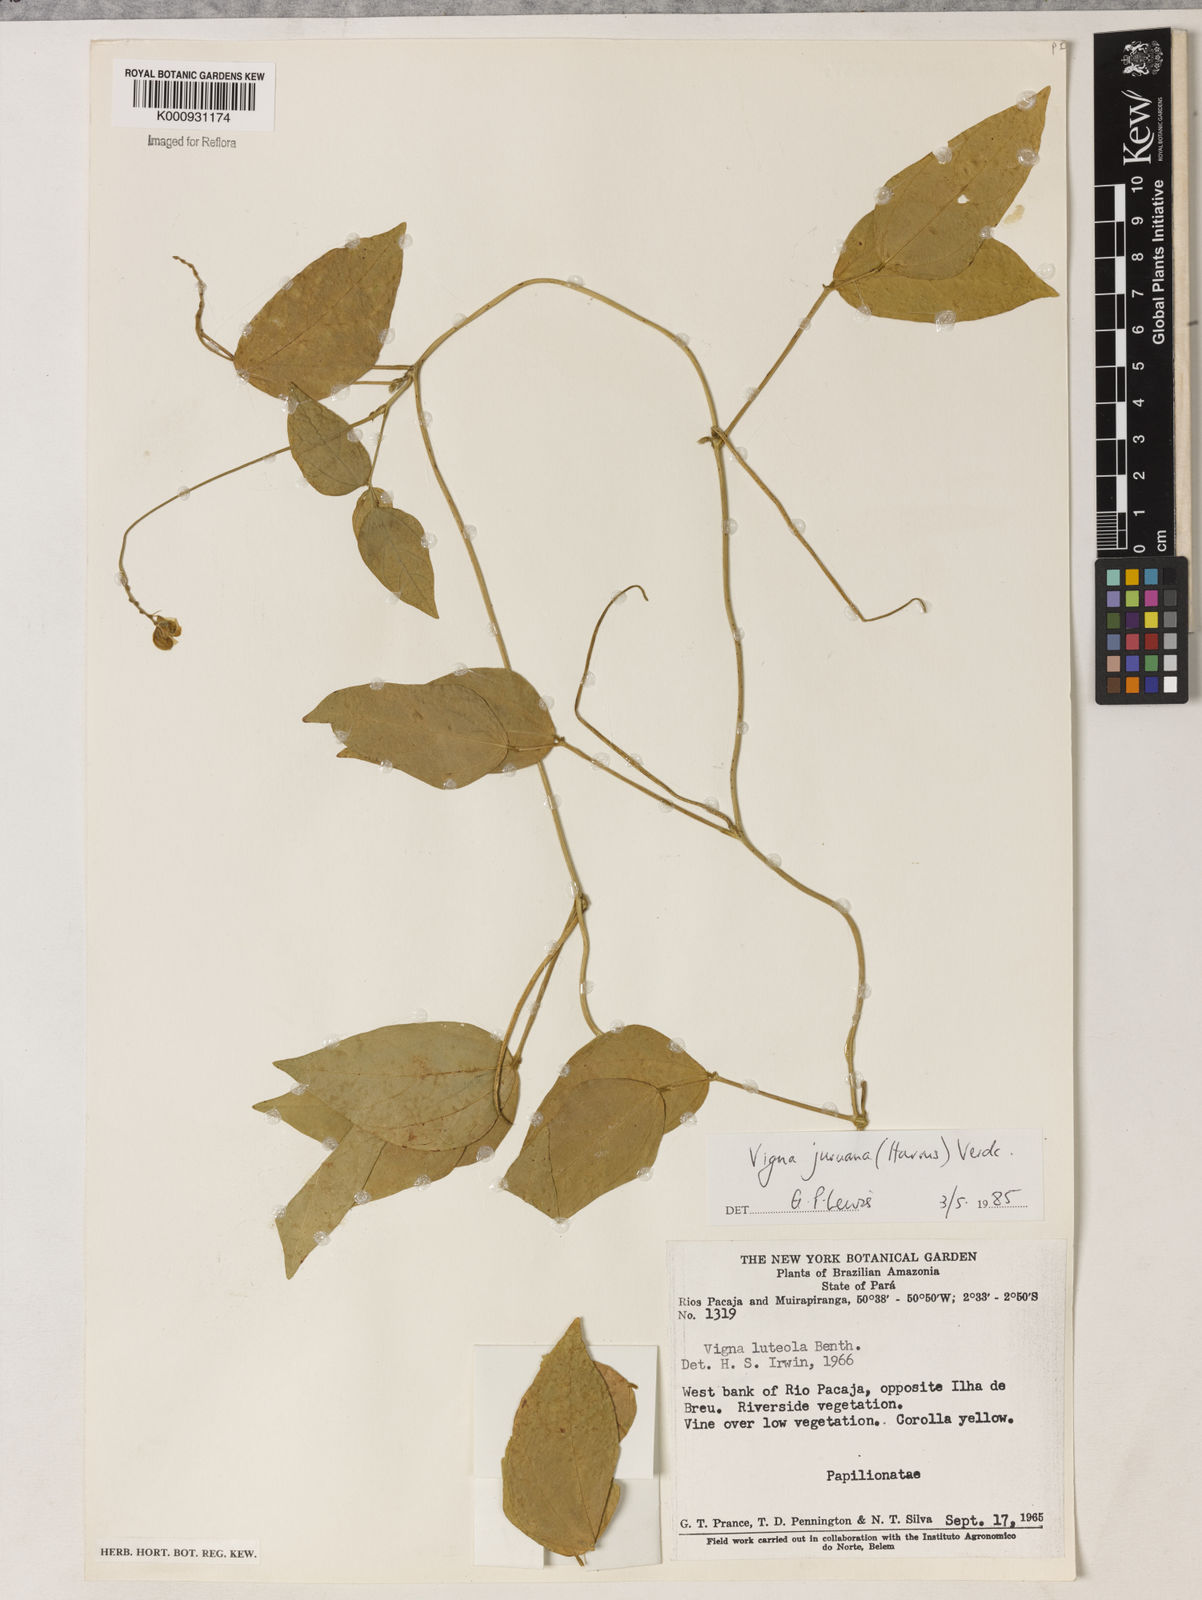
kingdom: Plantae
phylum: Tracheophyta
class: Magnoliopsida
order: Fabales
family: Fabaceae
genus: Vigna
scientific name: Vigna juruana
